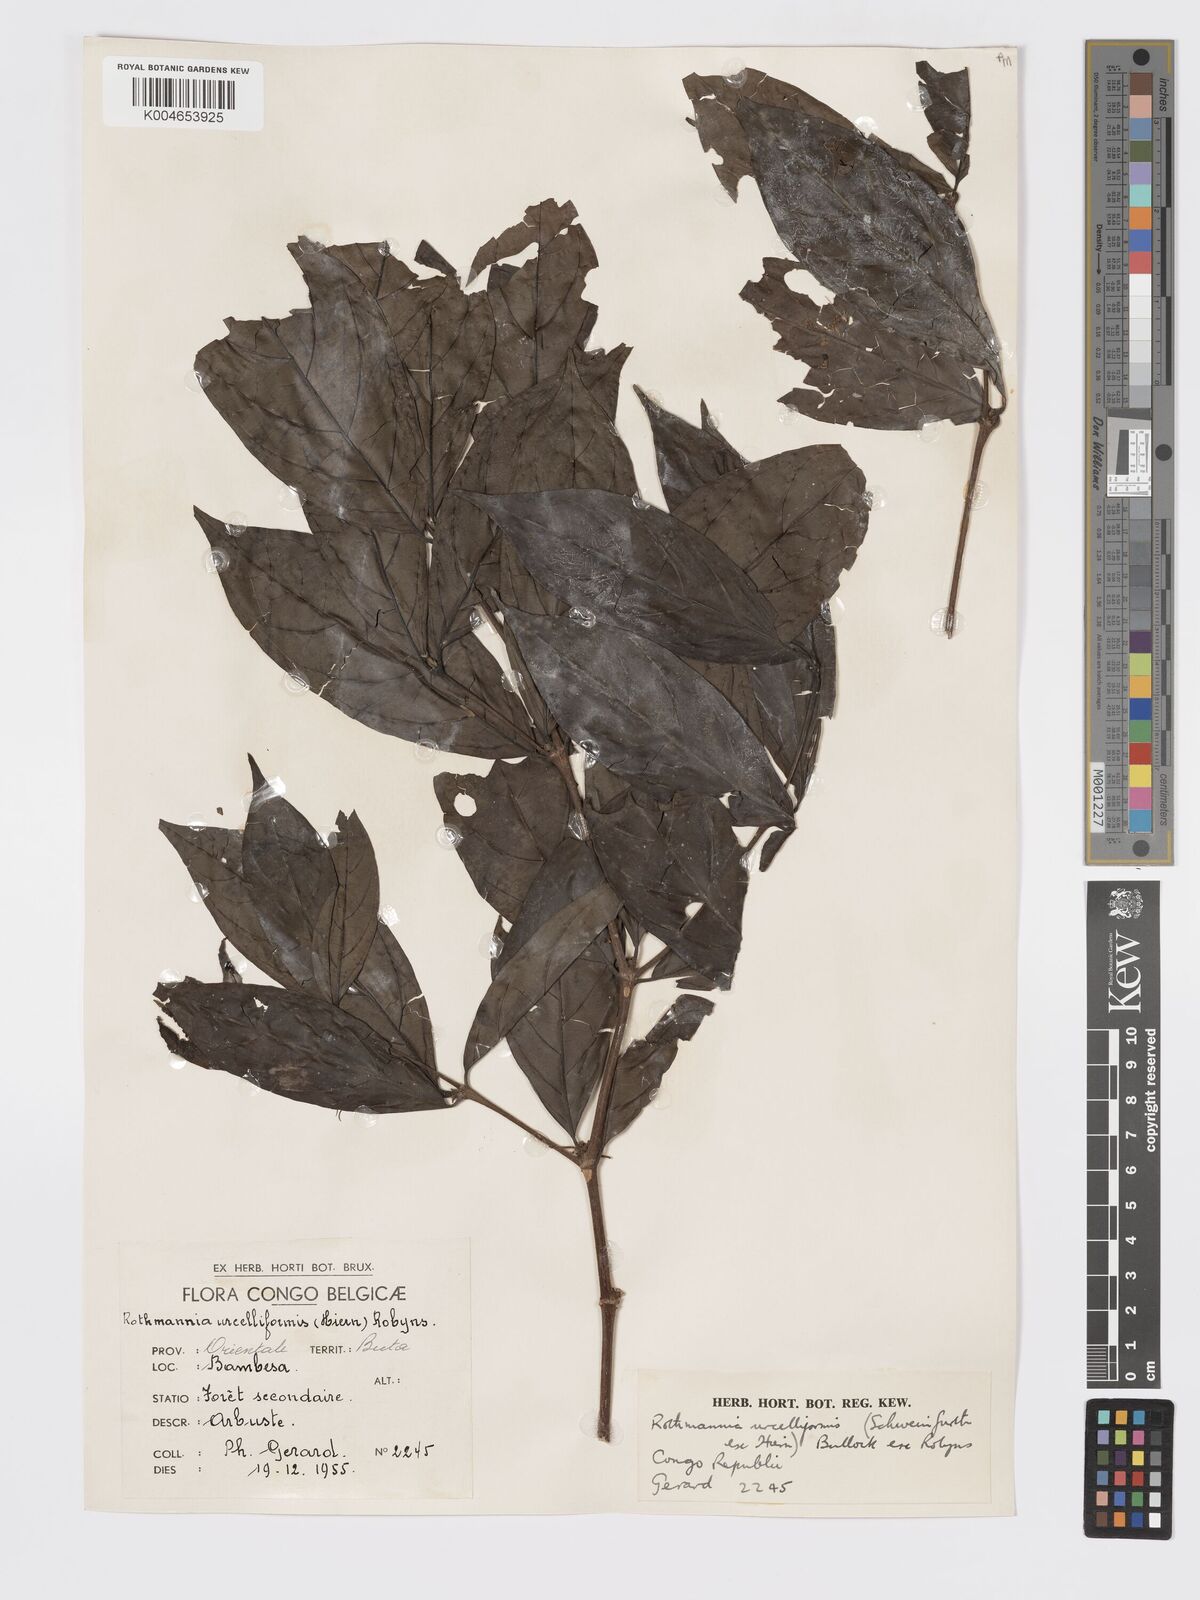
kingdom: Plantae
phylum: Tracheophyta
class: Magnoliopsida
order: Gentianales
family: Rubiaceae
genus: Rothmannia
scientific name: Rothmannia urcelliformis
